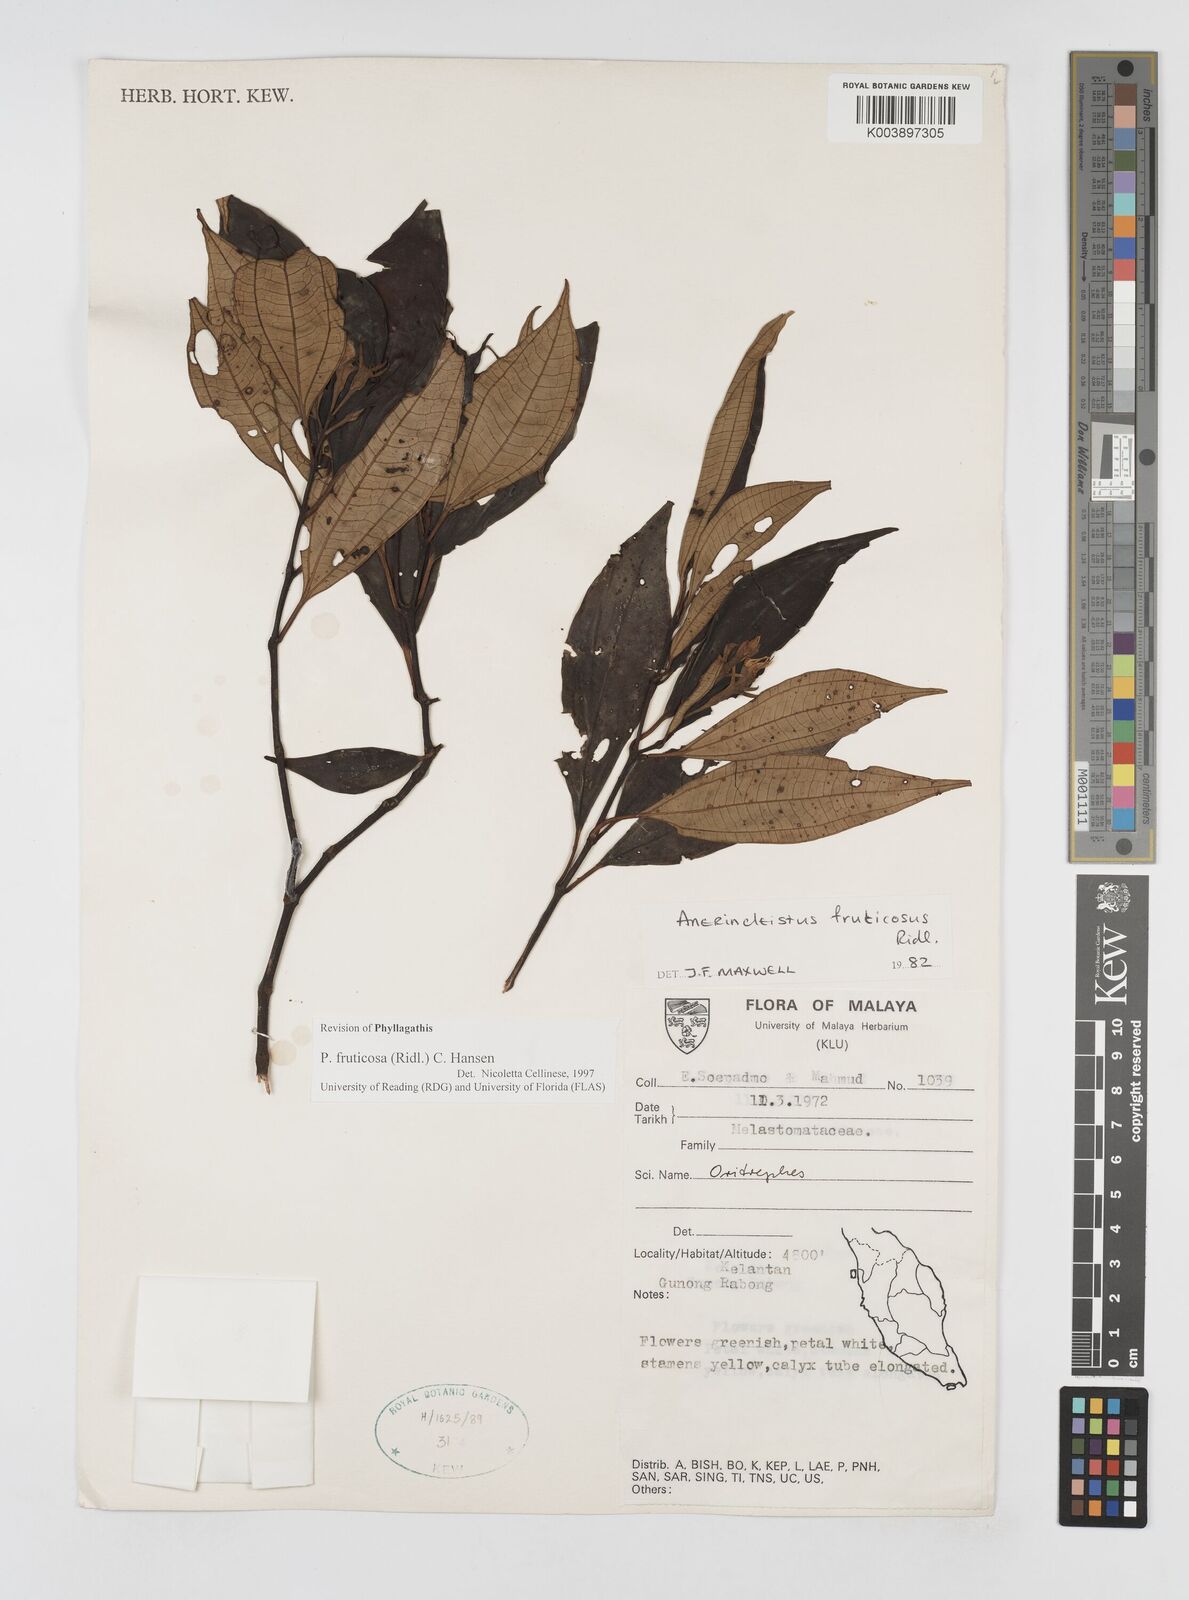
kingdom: Plantae
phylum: Tracheophyta
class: Magnoliopsida
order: Myrtales
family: Melastomataceae
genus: Anerincleistus
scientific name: Anerincleistus fruticosus
